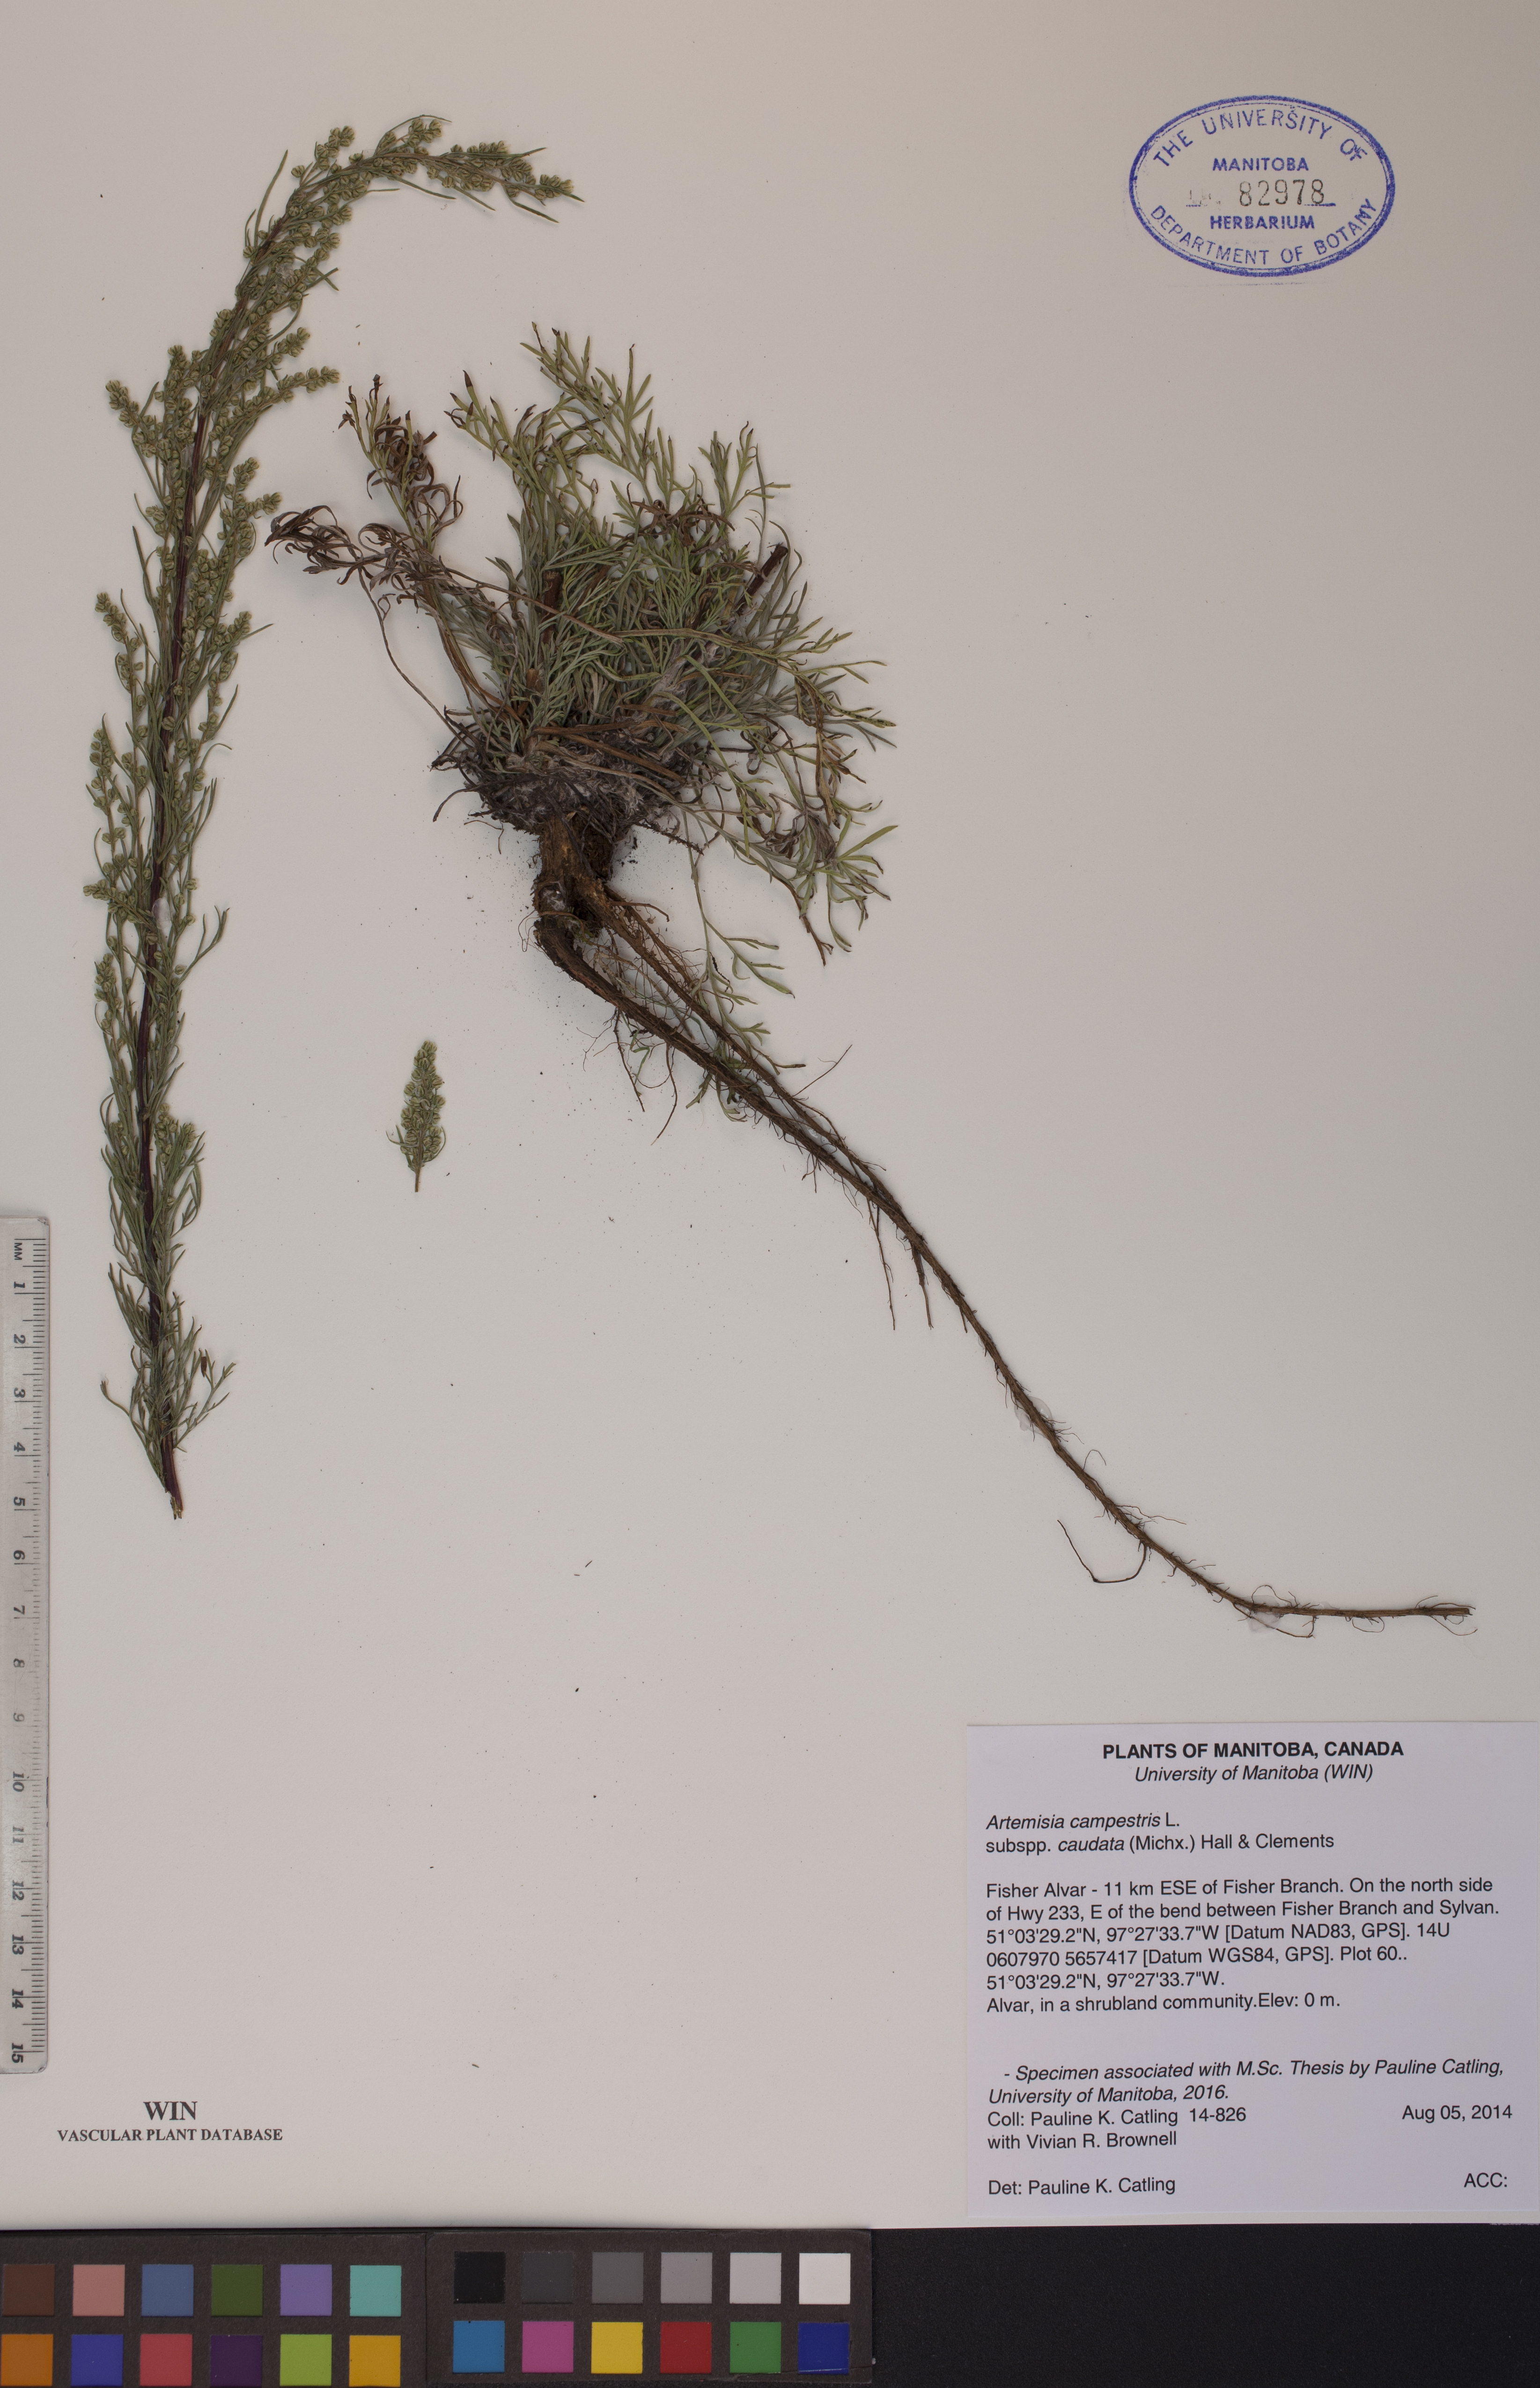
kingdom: Plantae
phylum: Tracheophyta
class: Magnoliopsida
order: Asterales
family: Asteraceae
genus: Artemisia
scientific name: Artemisia campestris
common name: Field wormwood
